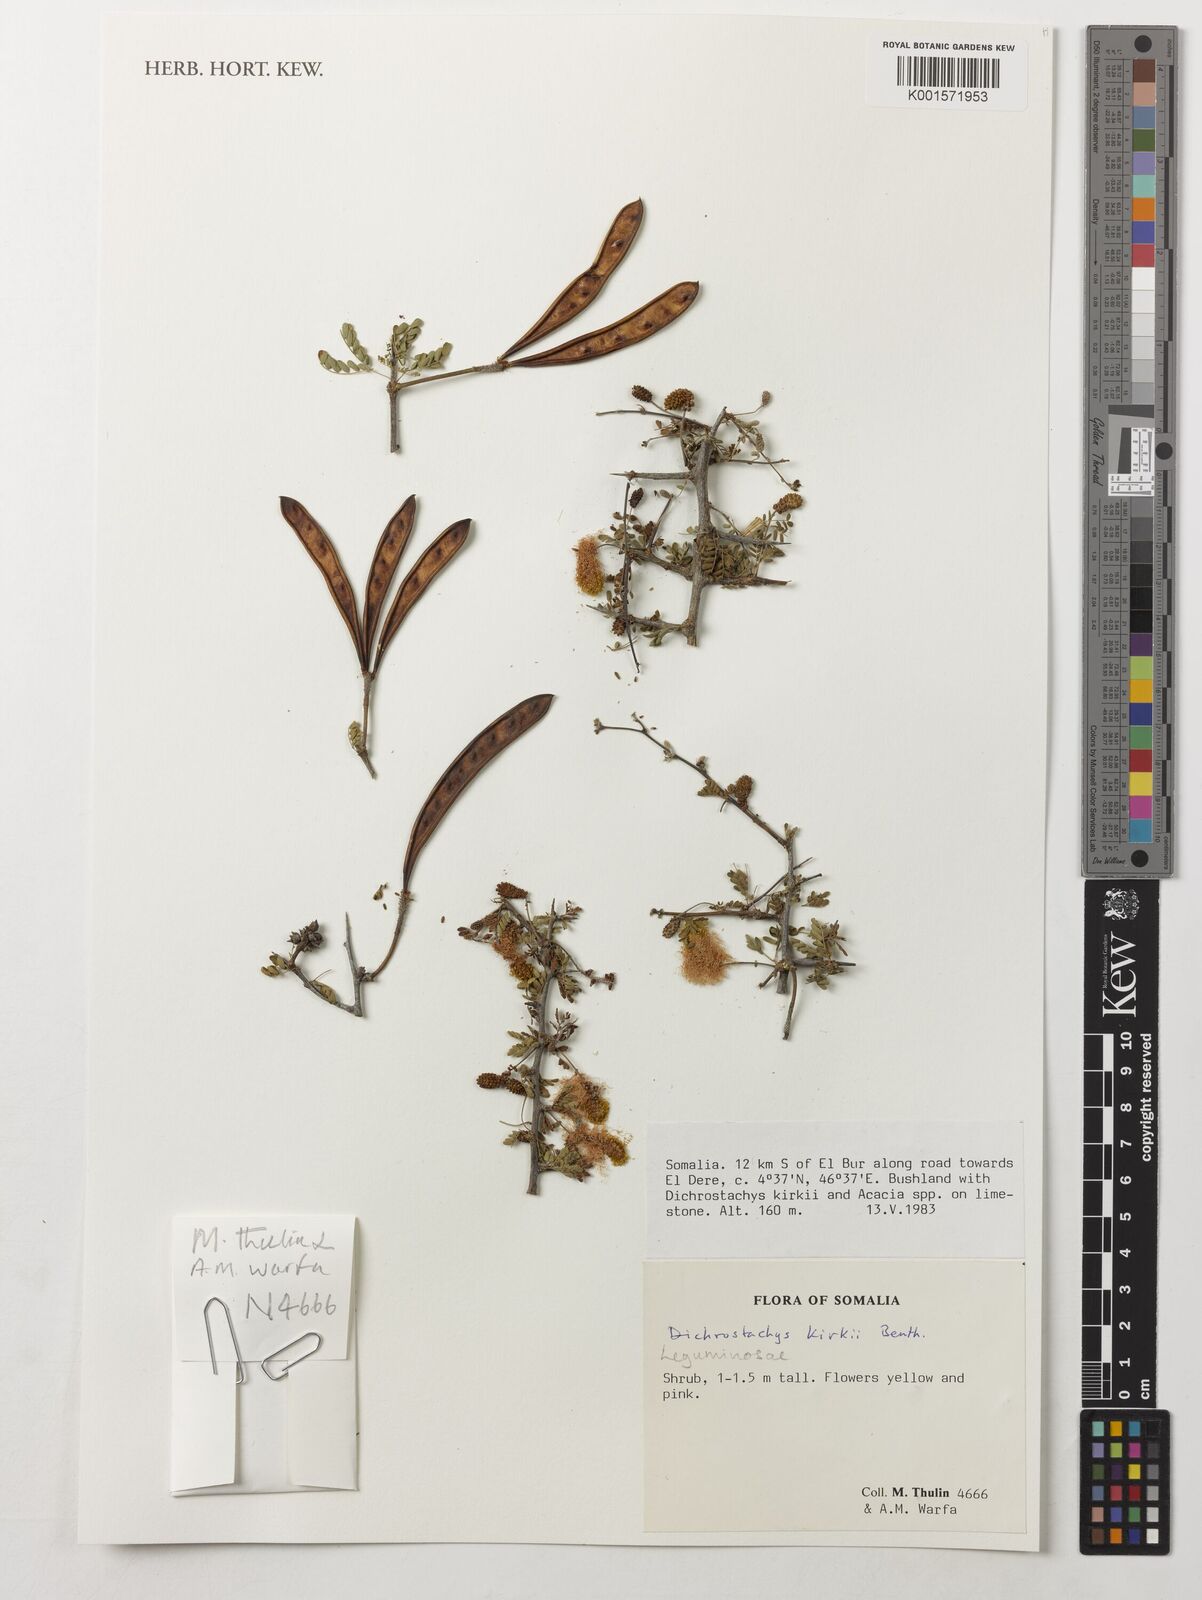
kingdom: Plantae
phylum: Tracheophyta
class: Magnoliopsida
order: Fabales
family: Fabaceae
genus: Dichrostachys
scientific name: Dichrostachys kirkii
